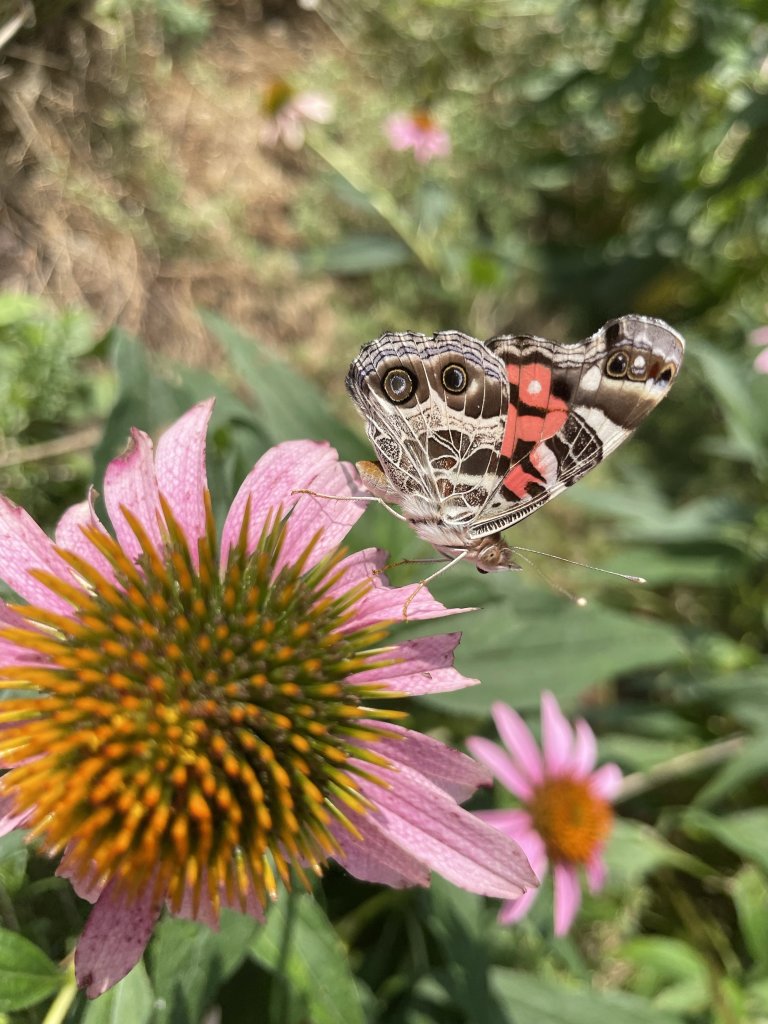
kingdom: Animalia
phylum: Arthropoda
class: Insecta
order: Lepidoptera
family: Nymphalidae
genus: Vanessa
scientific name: Vanessa virginiensis
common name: American Lady
